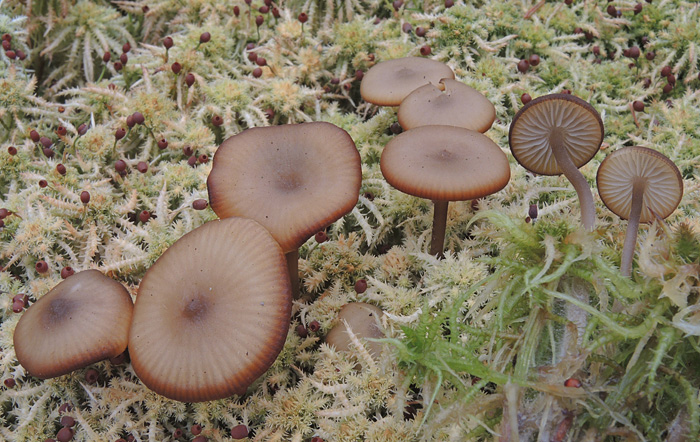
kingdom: Fungi
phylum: Basidiomycota
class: Agaricomycetes
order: Agaricales
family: Lyophyllaceae
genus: Sphagnurus
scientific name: Sphagnurus paluster
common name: tørvemos-gråblad
